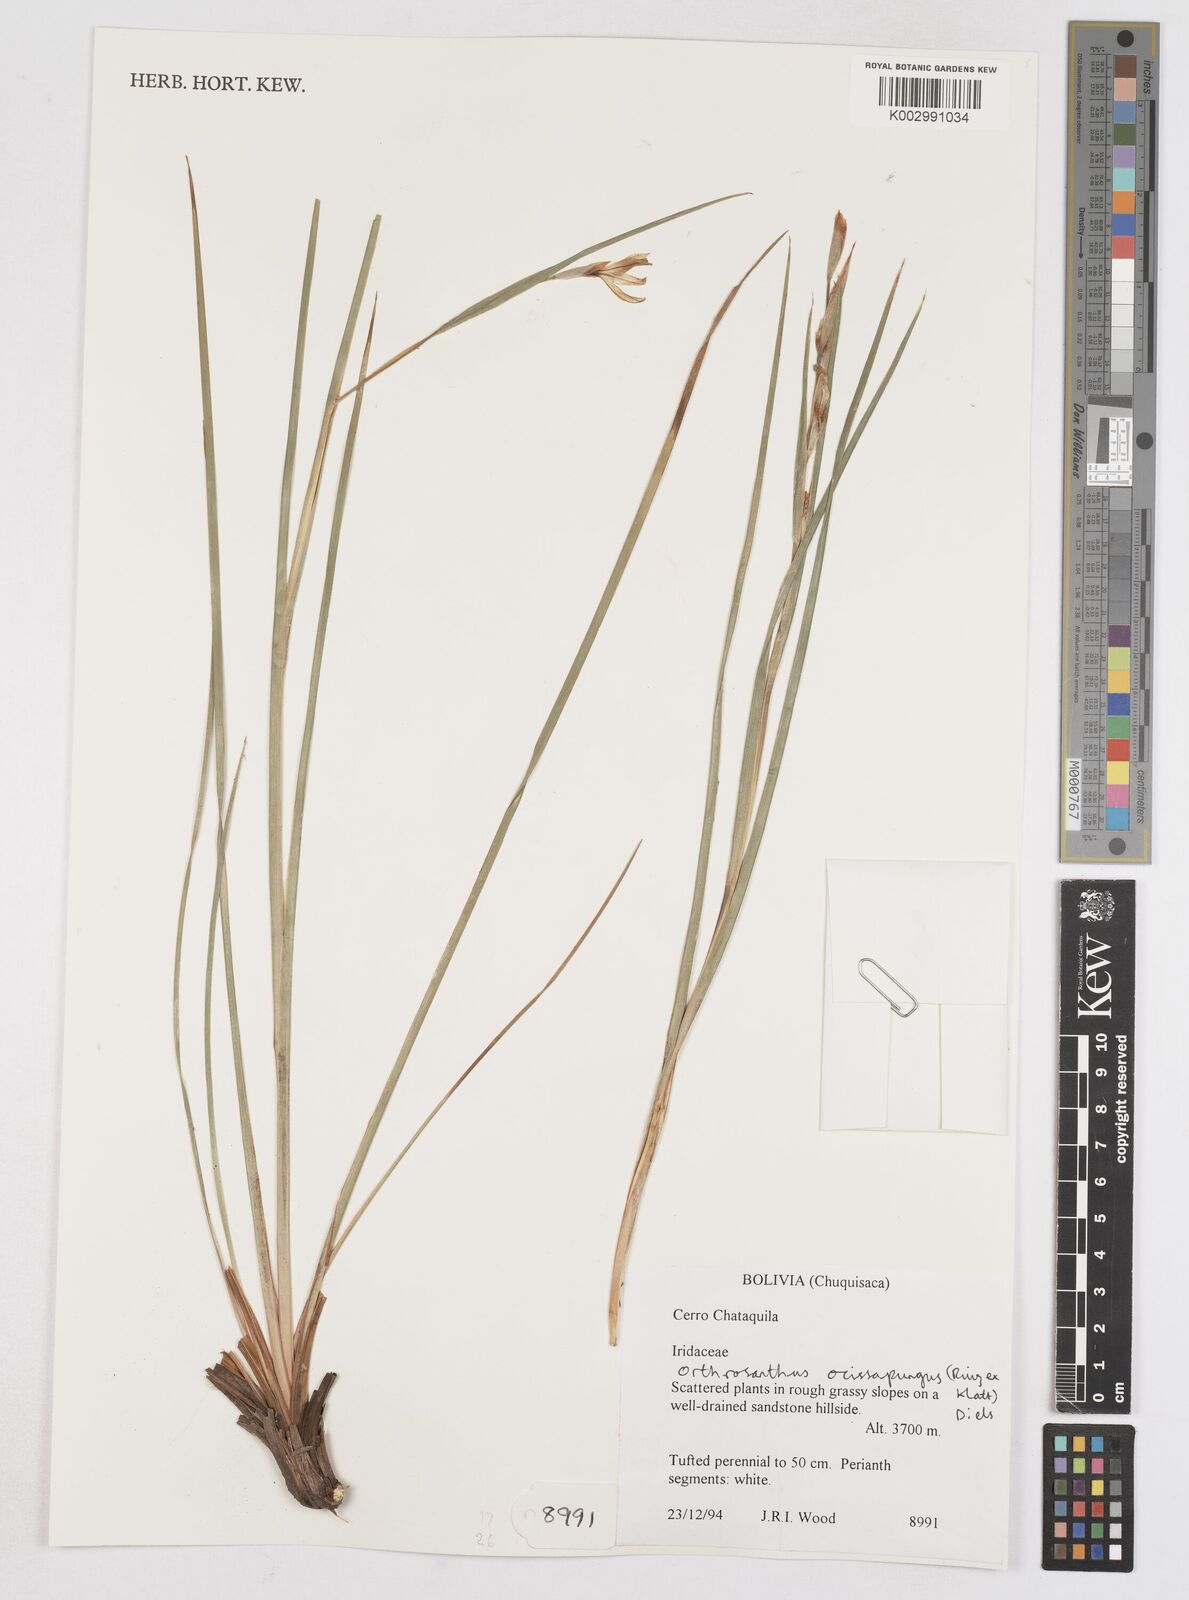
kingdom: Plantae
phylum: Tracheophyta
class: Liliopsida
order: Asparagales
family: Iridaceae
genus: Orthrosanthus
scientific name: Orthrosanthus occissapungus
